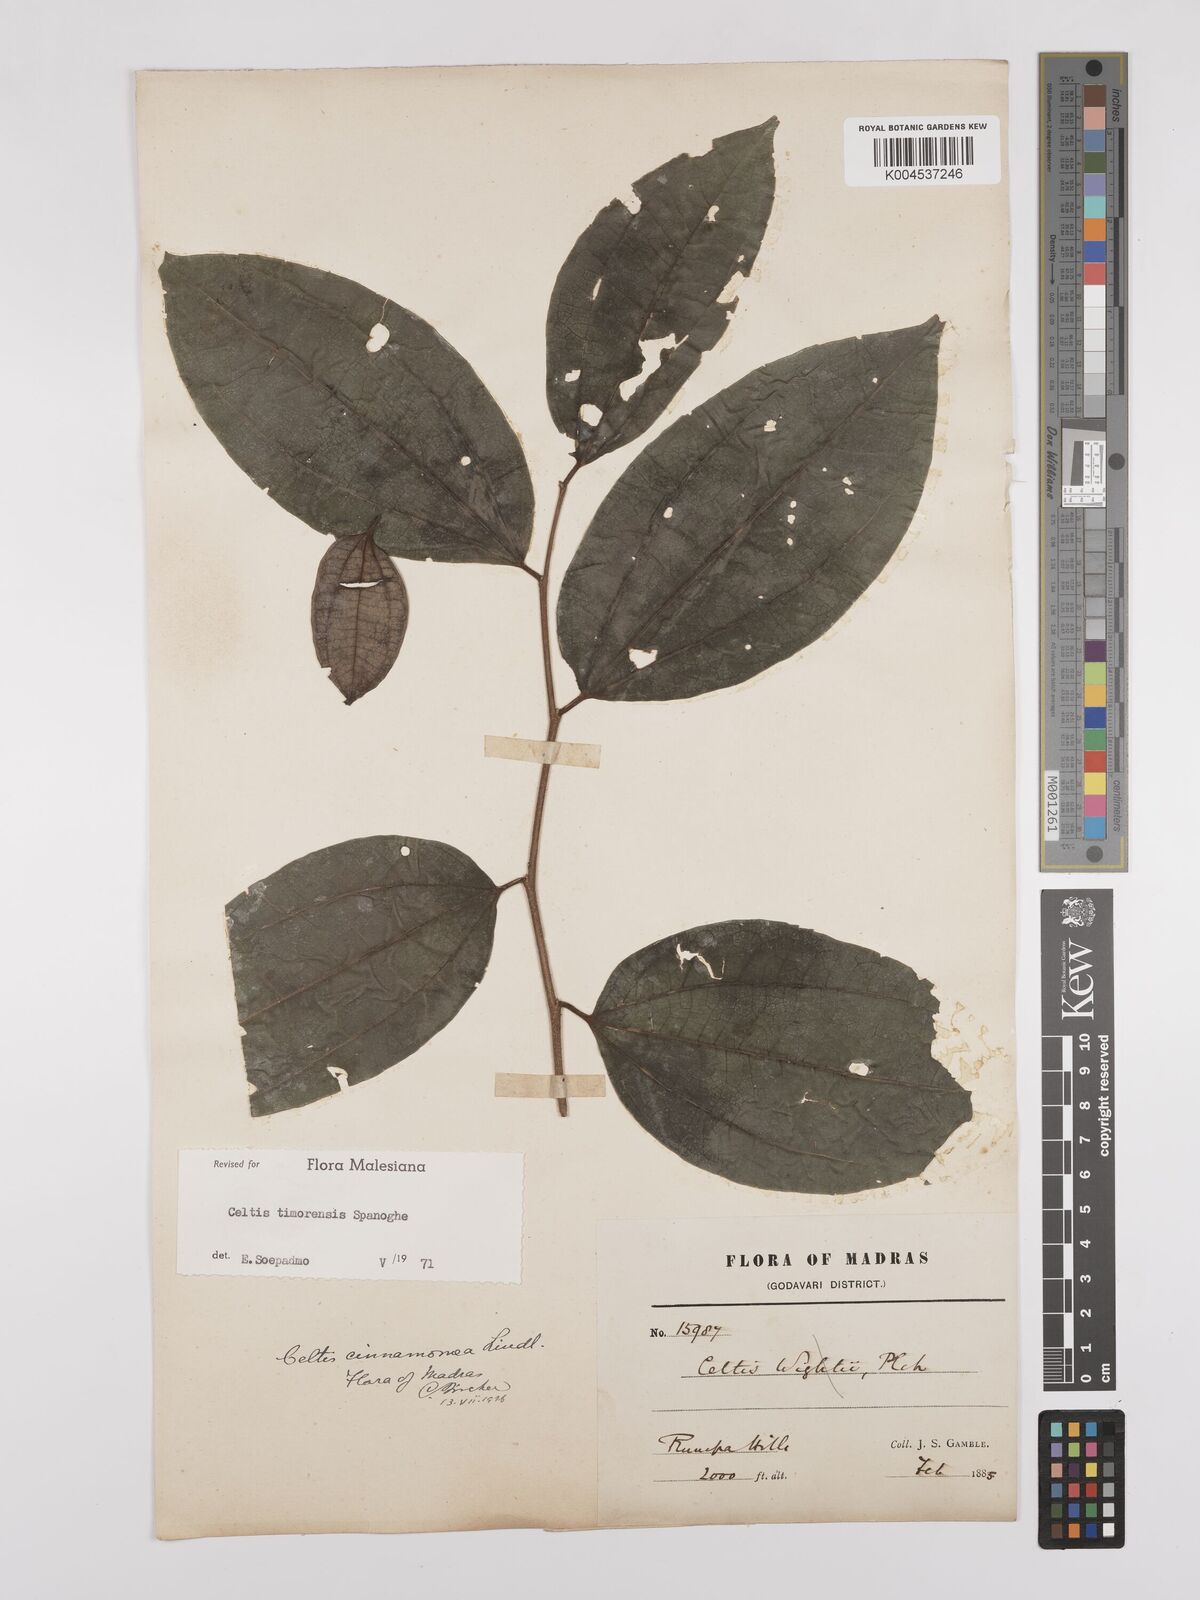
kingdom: Plantae
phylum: Tracheophyta
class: Magnoliopsida
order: Rosales
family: Cannabaceae
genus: Celtis
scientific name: Celtis timorensis
